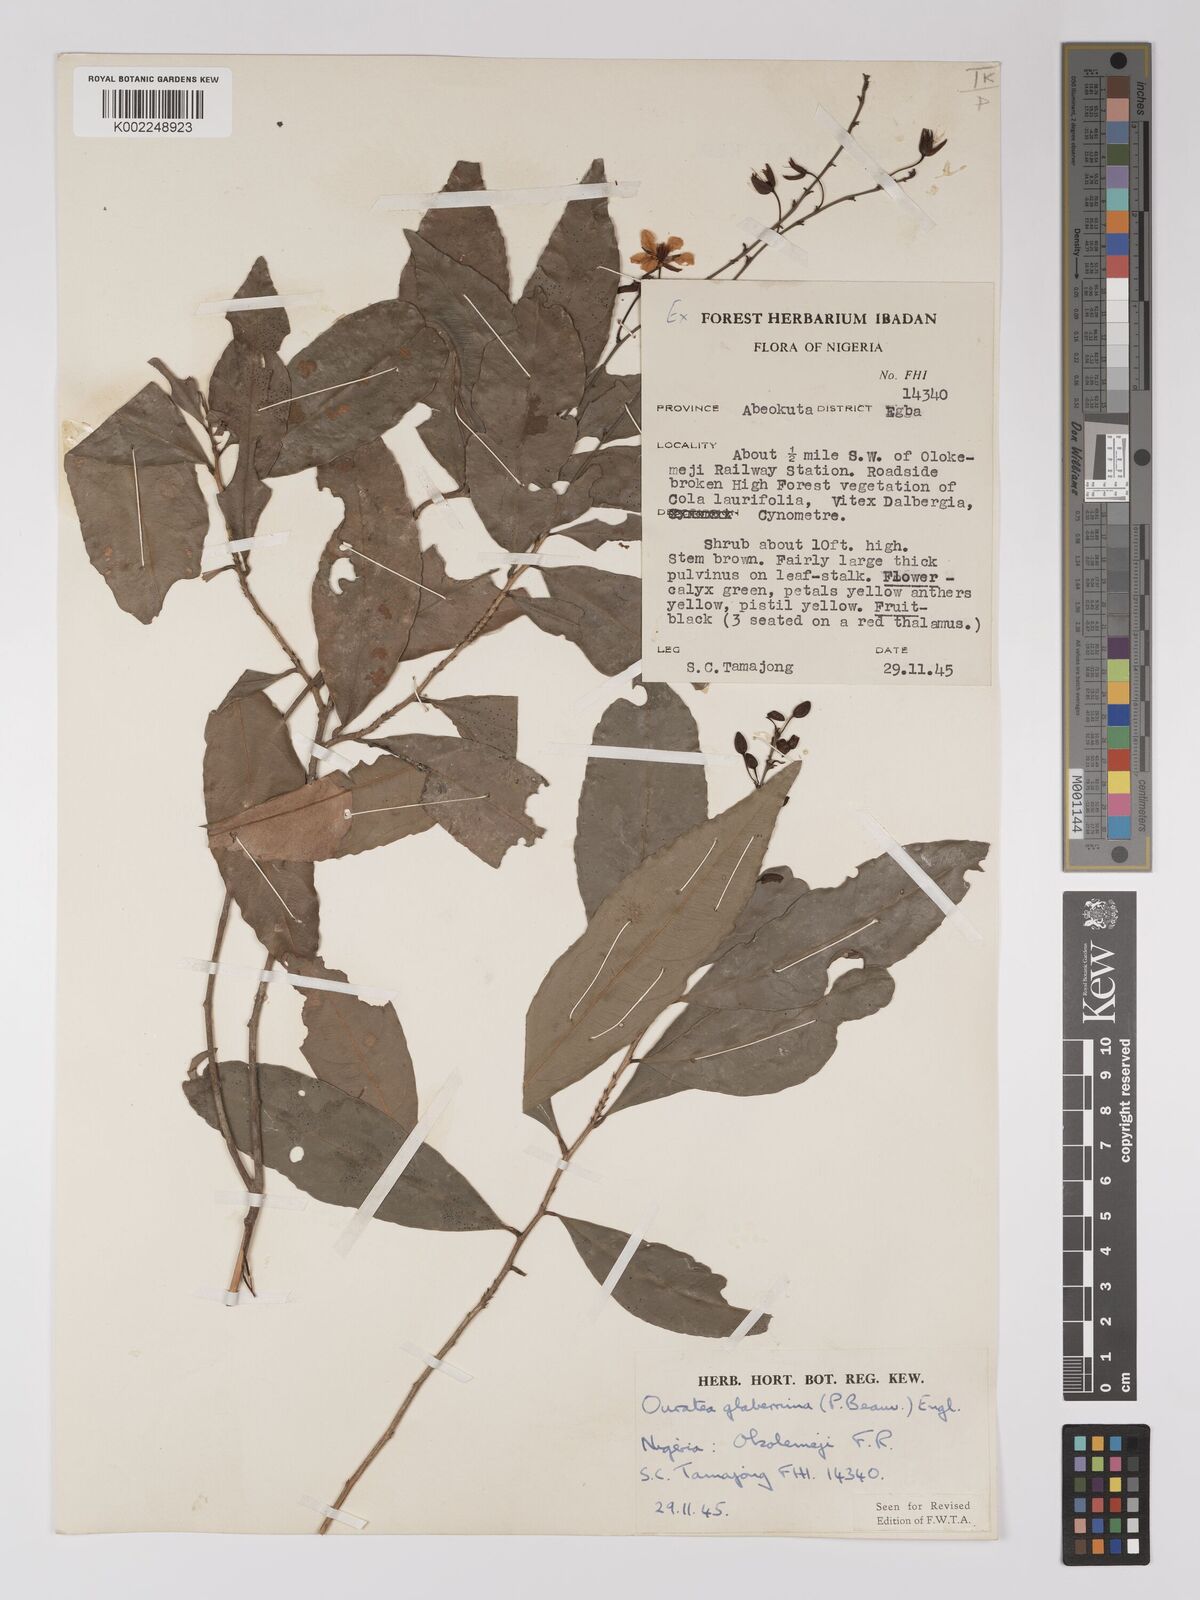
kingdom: Plantae
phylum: Tracheophyta
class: Magnoliopsida
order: Malpighiales
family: Ochnaceae
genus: Campylospermum
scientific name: Campylospermum glaberrimum
